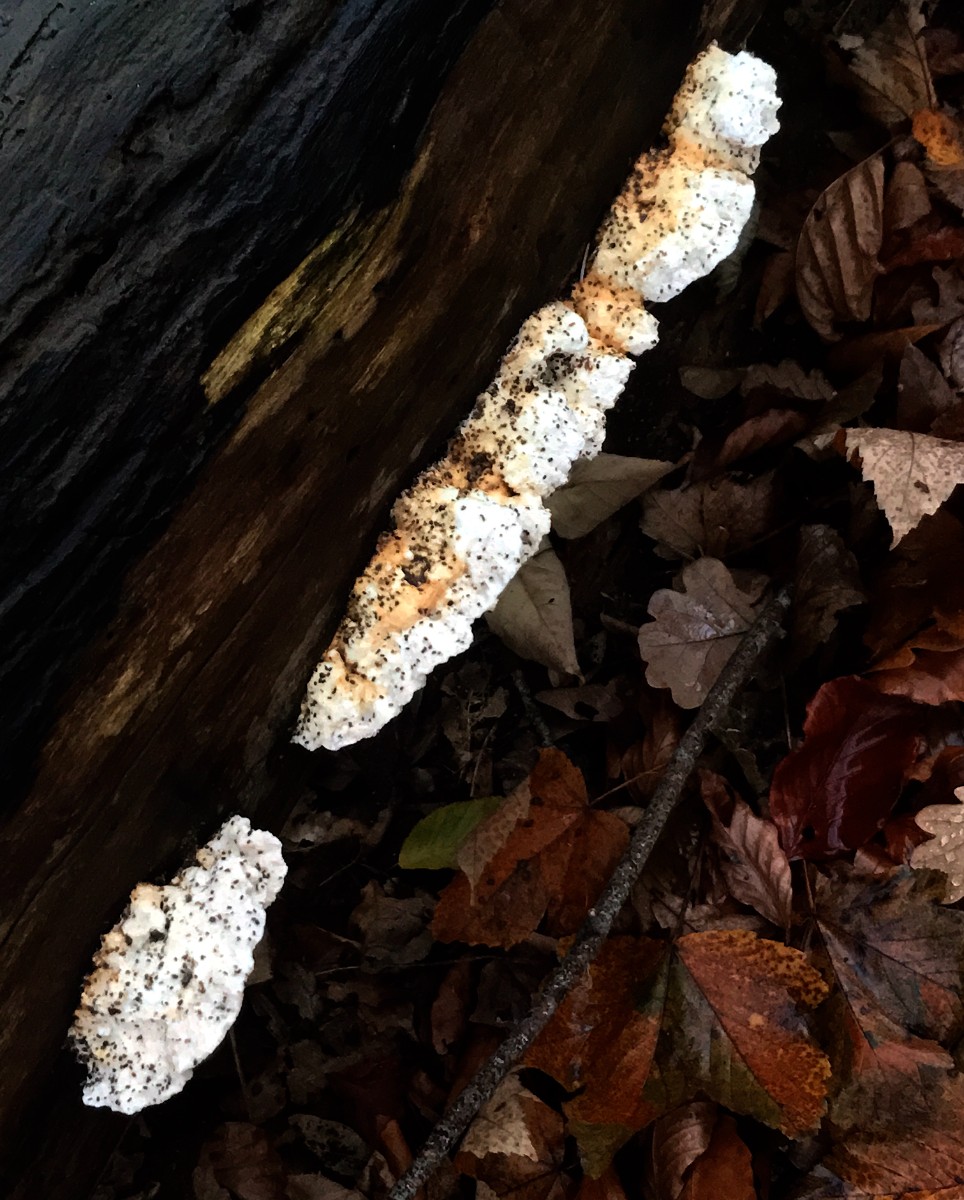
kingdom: Fungi
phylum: Basidiomycota
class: Agaricomycetes
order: Polyporales
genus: Amaropostia
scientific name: Amaropostia stiptica
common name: bitter kødporesvamp
